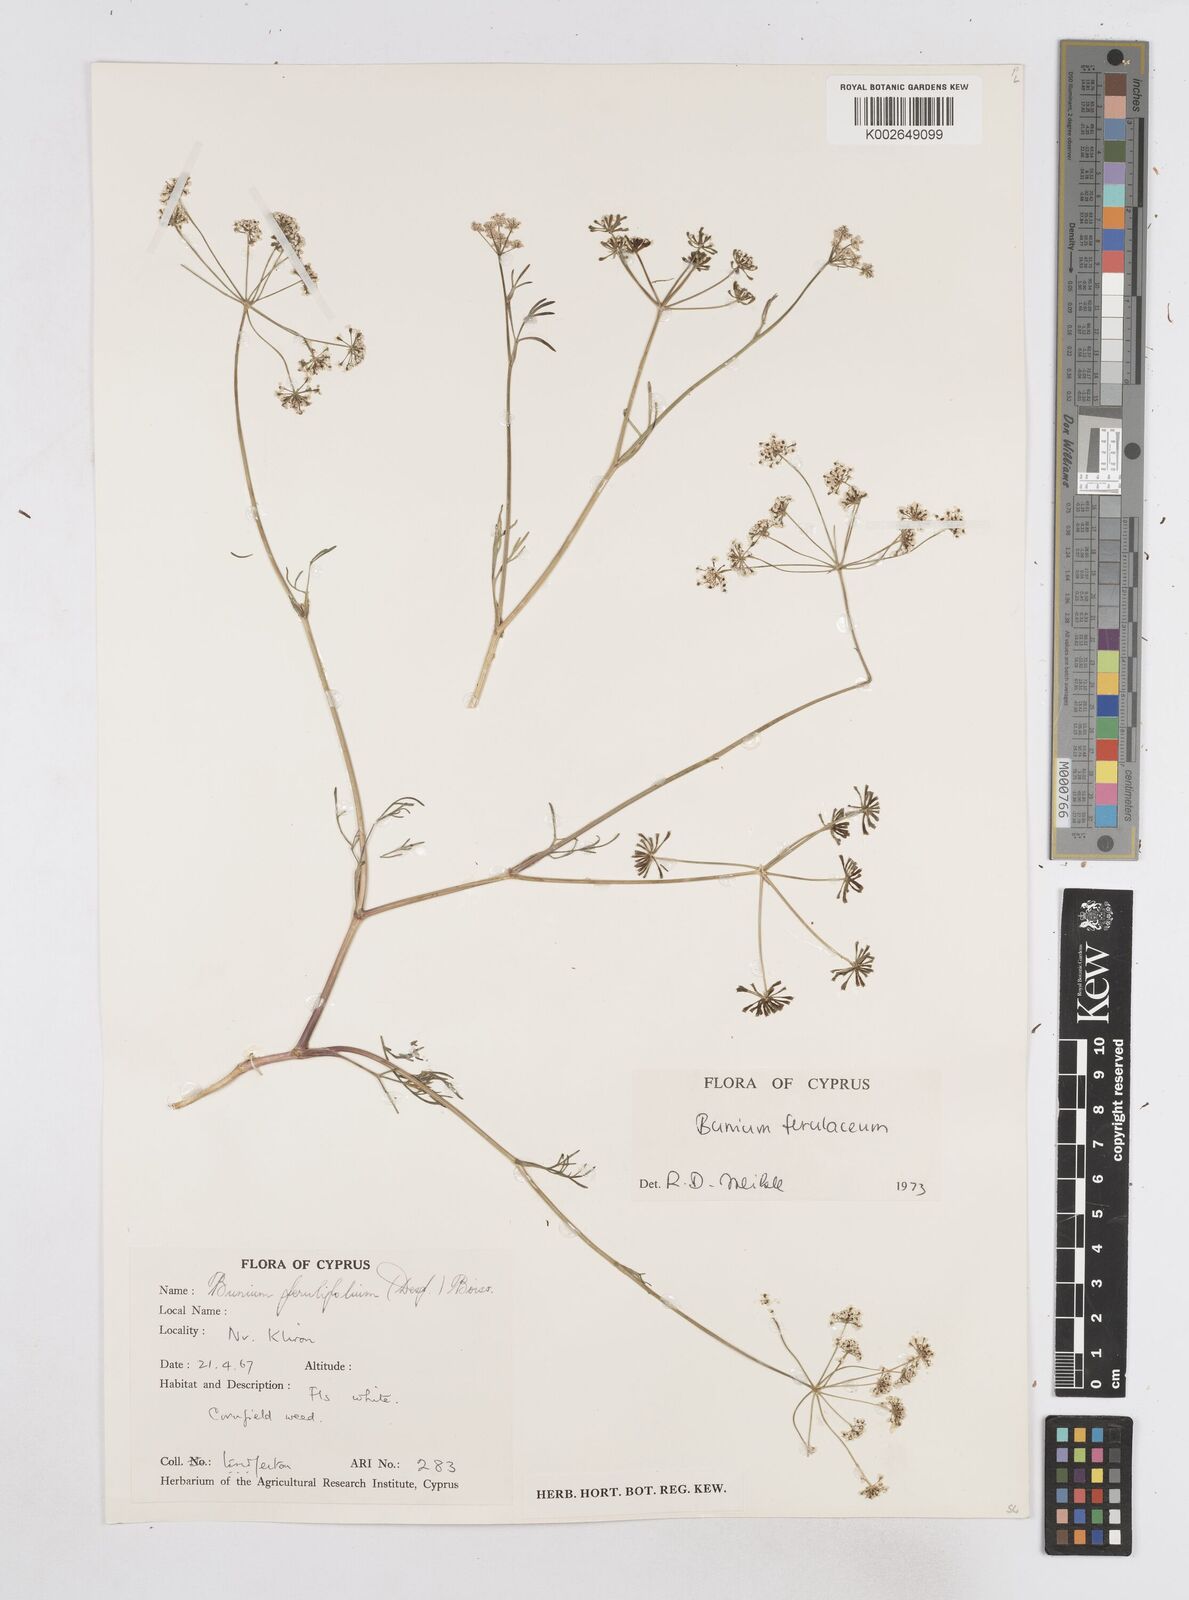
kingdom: Plantae
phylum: Tracheophyta
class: Magnoliopsida
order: Apiales
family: Apiaceae
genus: Bunium
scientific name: Bunium ferulaceum
